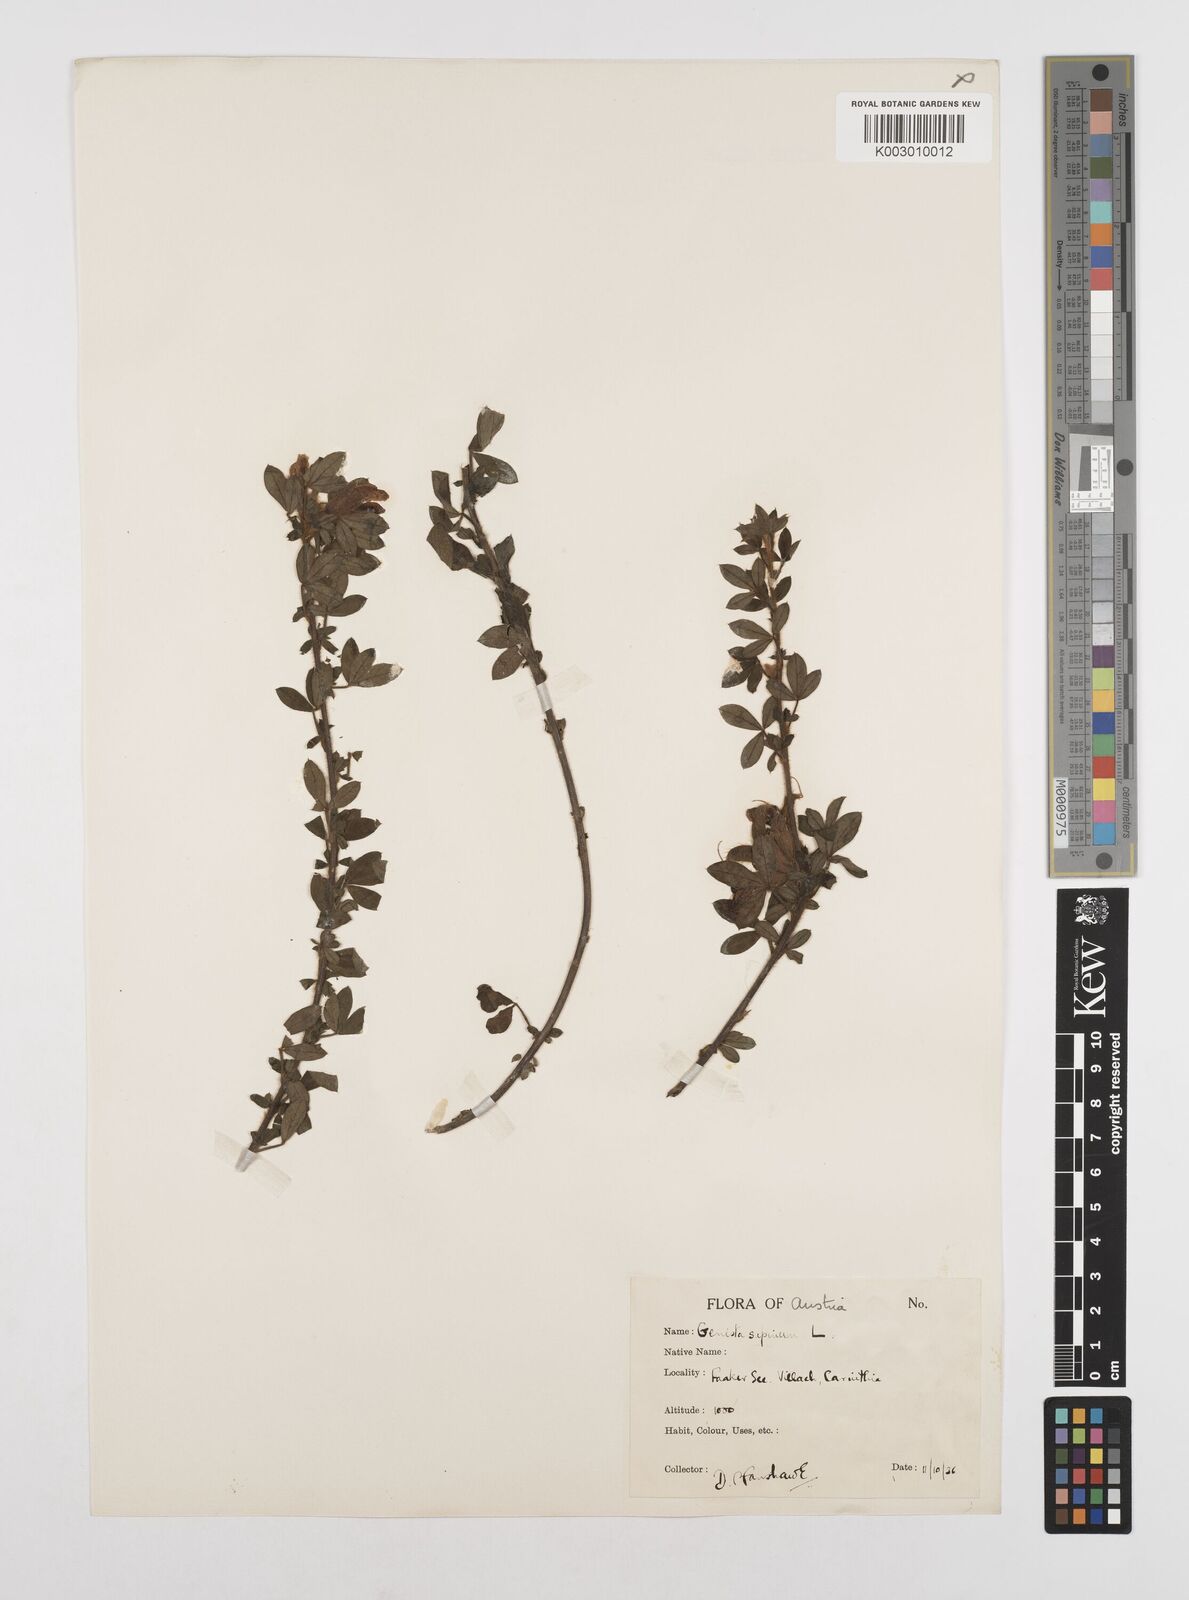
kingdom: Plantae
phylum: Tracheophyta
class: Magnoliopsida
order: Fabales
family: Fabaceae
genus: Chamaecytisus
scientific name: Chamaecytisus hirsutus
